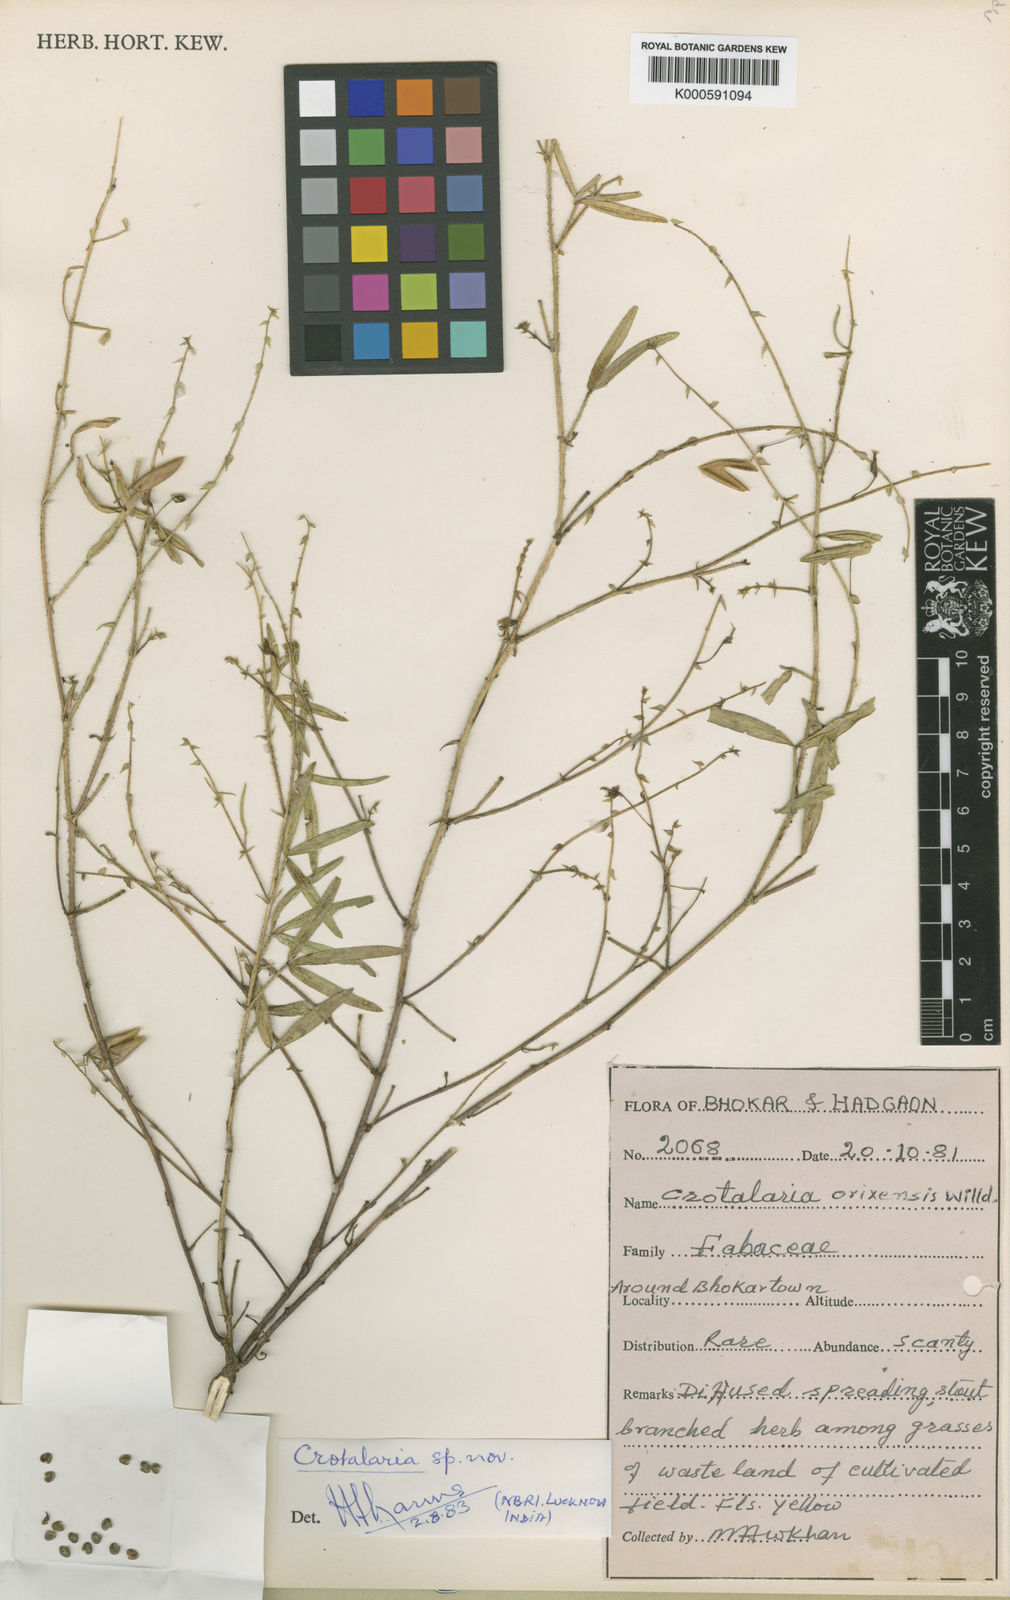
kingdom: Plantae
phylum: Tracheophyta
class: Magnoliopsida
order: Fabales
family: Fabaceae
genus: Crotalaria
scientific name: Crotalaria
